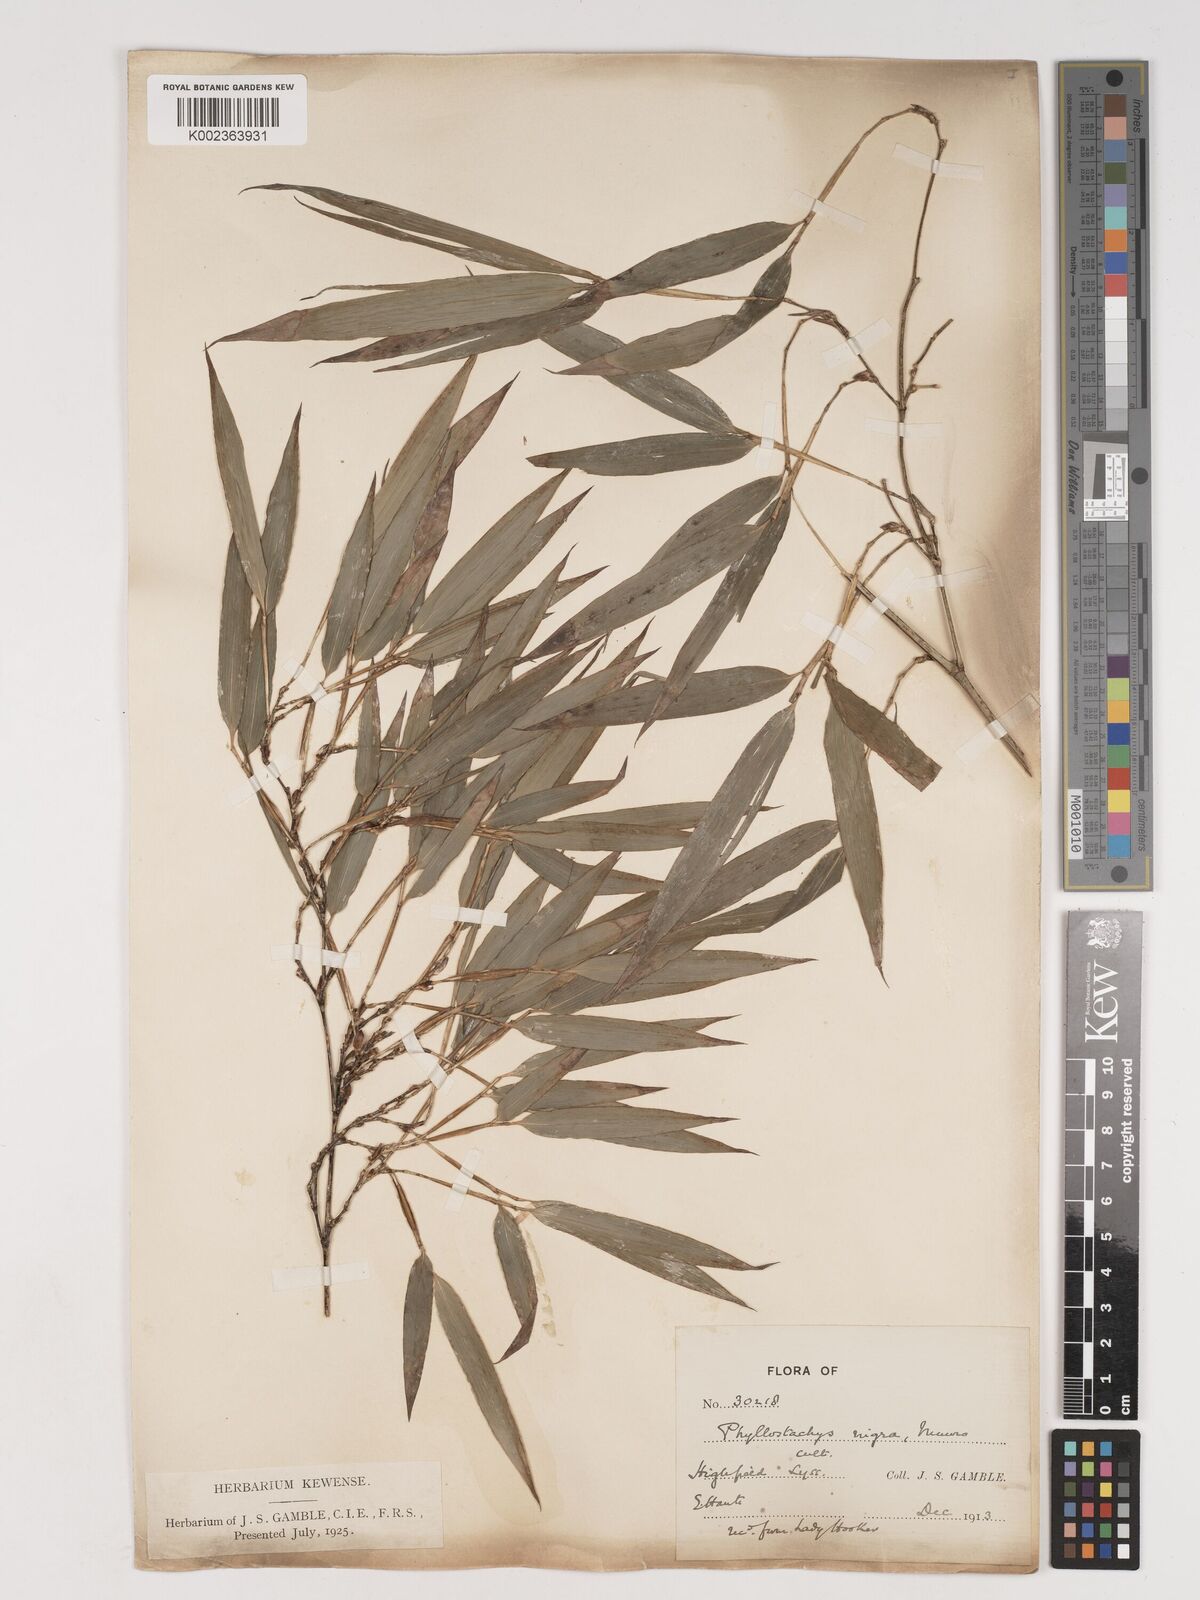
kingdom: Plantae
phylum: Tracheophyta
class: Liliopsida
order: Poales
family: Poaceae
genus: Phyllostachys
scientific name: Phyllostachys nigra
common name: Black bamboo
